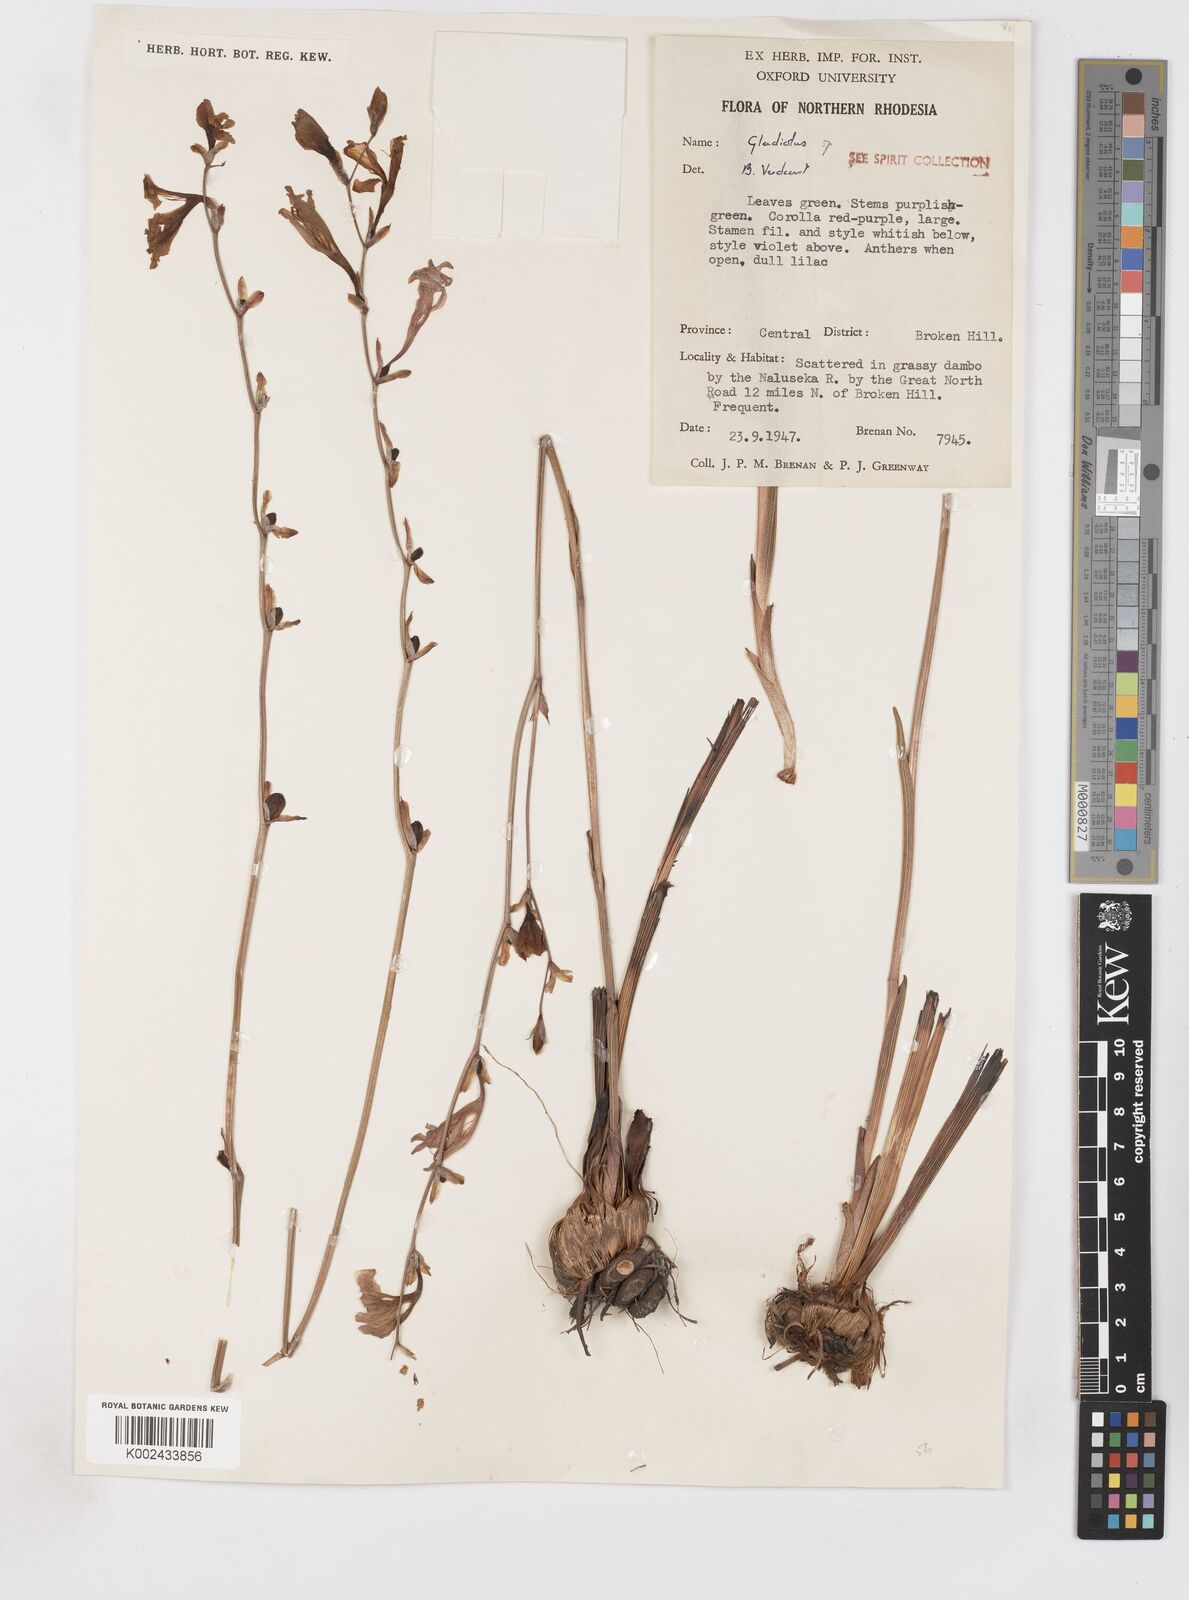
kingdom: Plantae
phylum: Tracheophyta
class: Liliopsida
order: Asparagales
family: Iridaceae
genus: Gladiolus
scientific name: Gladiolus laxiflorus
